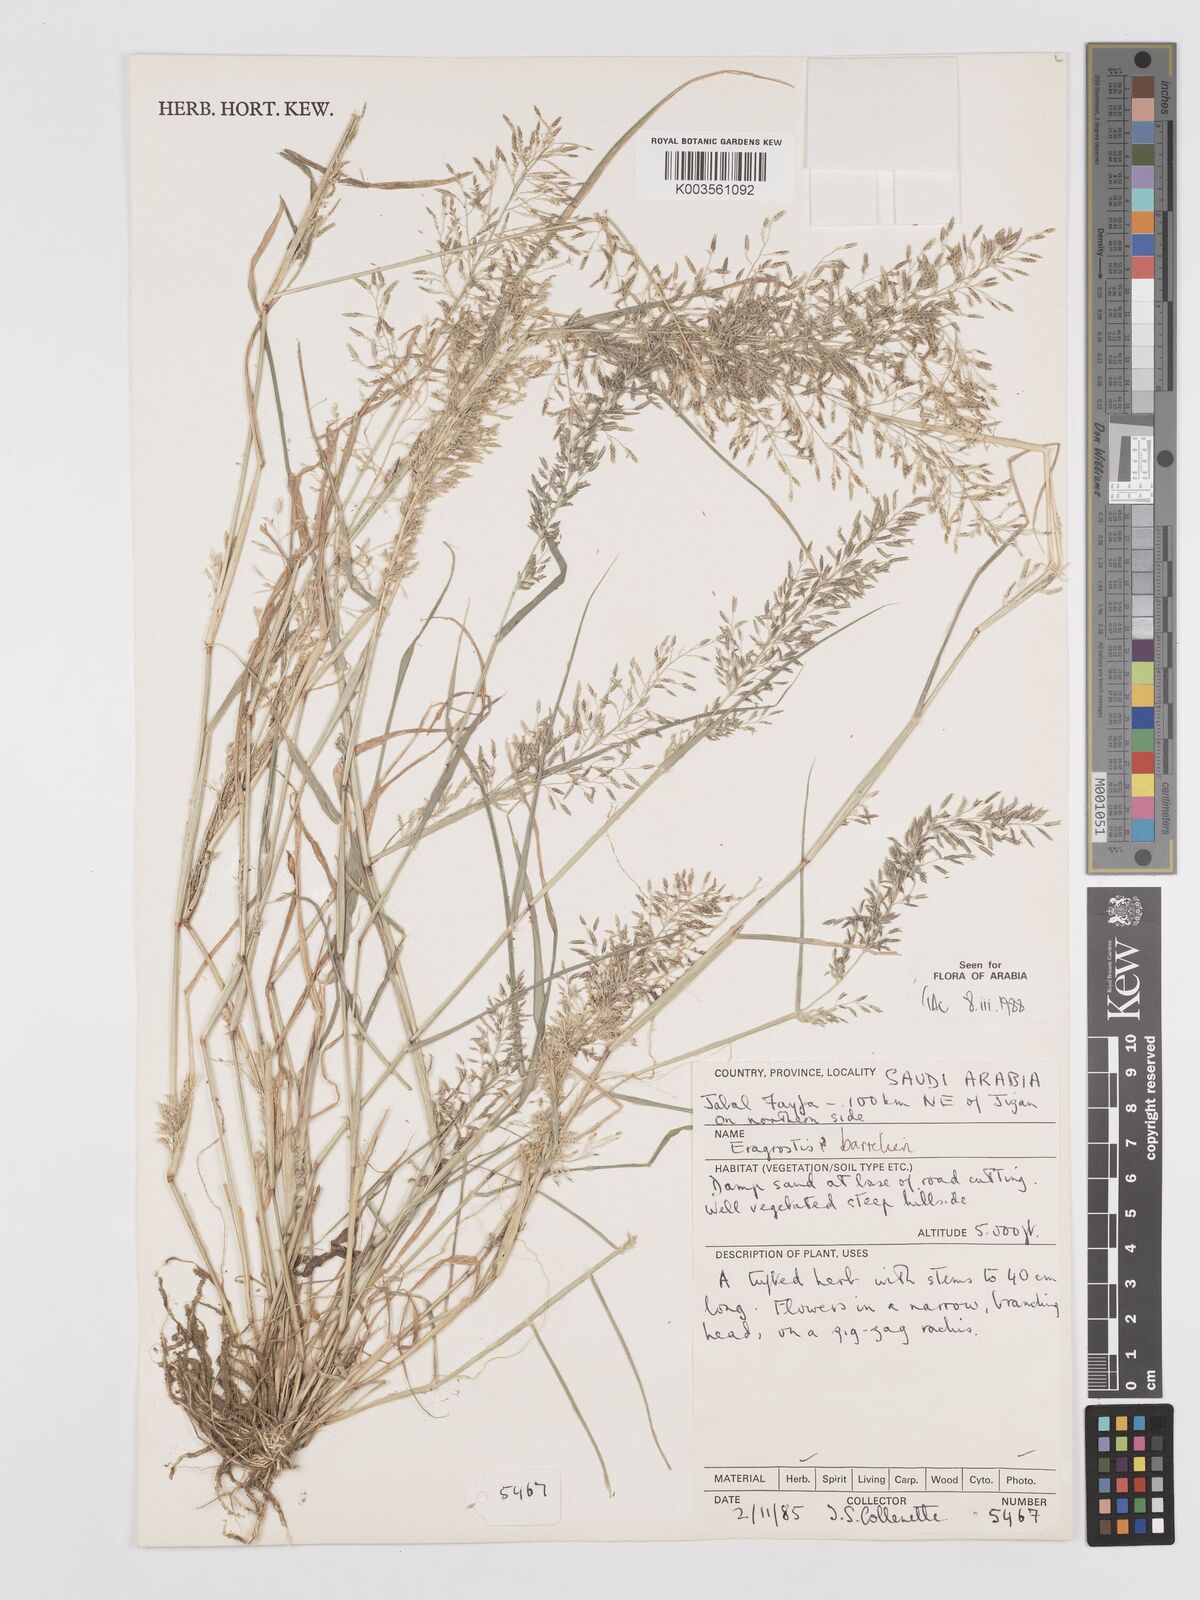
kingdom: Plantae
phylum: Tracheophyta
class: Liliopsida
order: Poales
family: Poaceae
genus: Eragrostis
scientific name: Eragrostis barrelieri
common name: Mediterranean lovegrass
